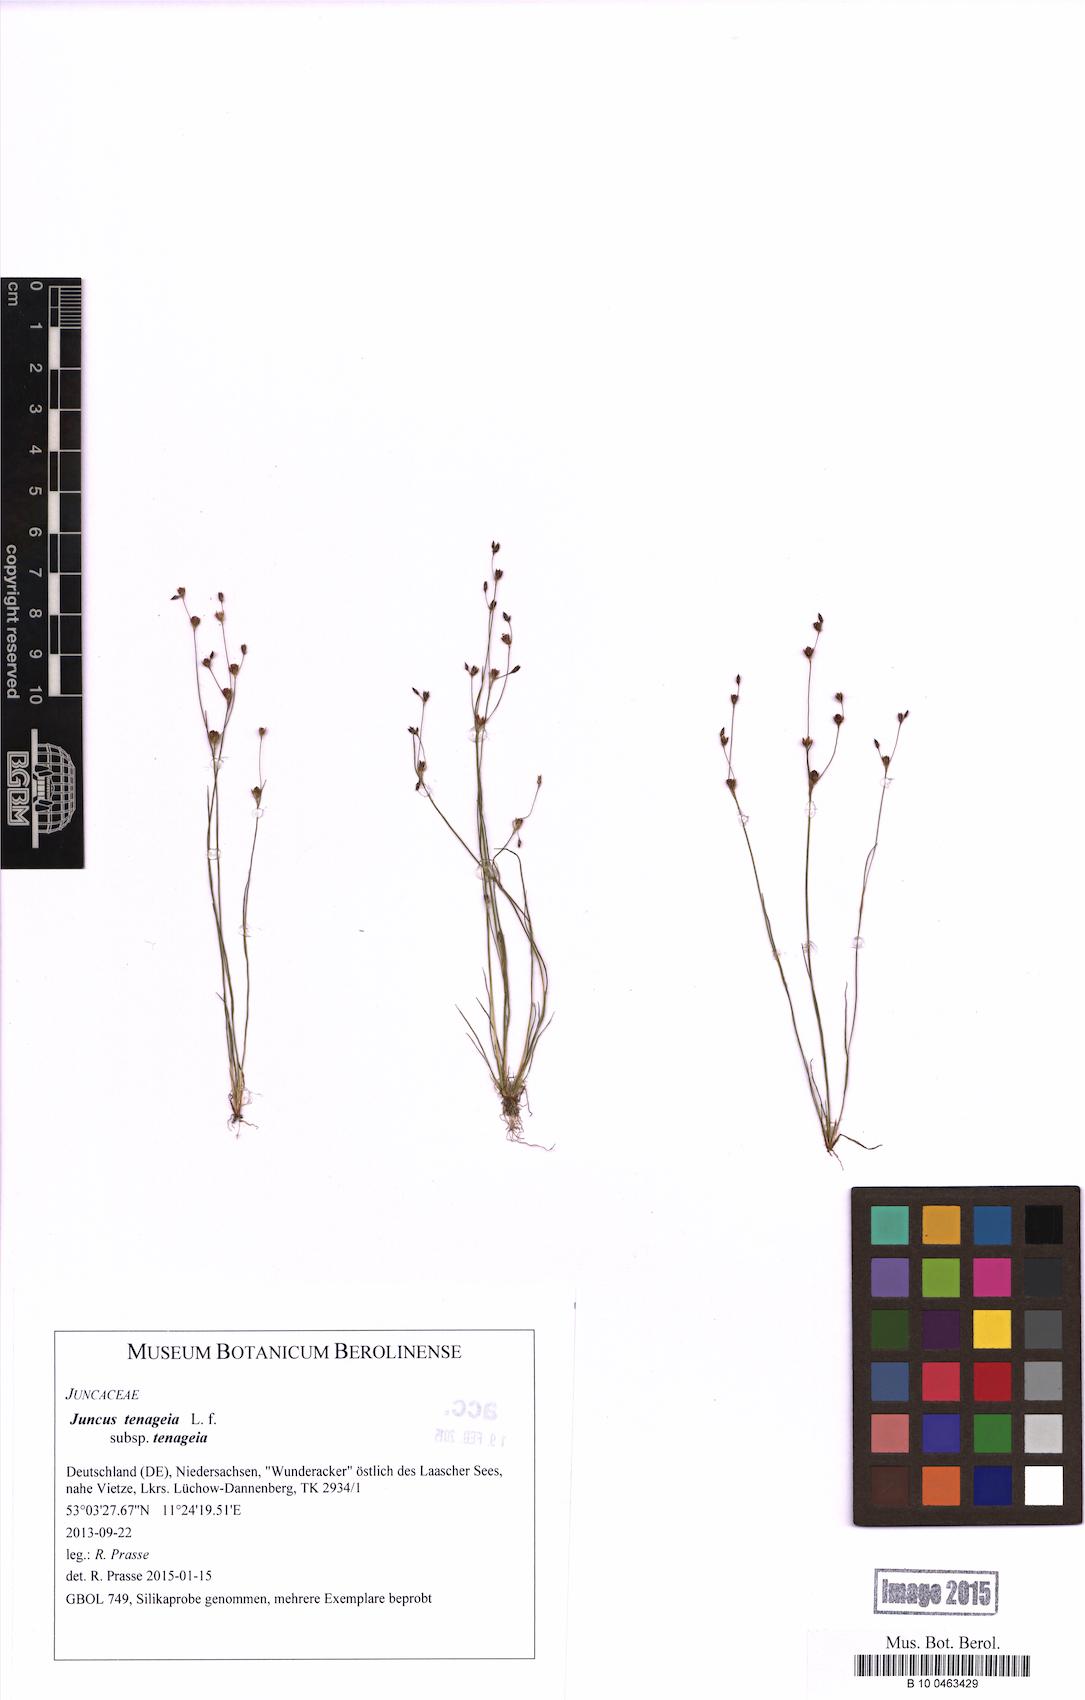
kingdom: Plantae
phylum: Tracheophyta
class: Liliopsida
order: Poales
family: Juncaceae
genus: Juncus
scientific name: Juncus tenageia
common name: Sand rush
